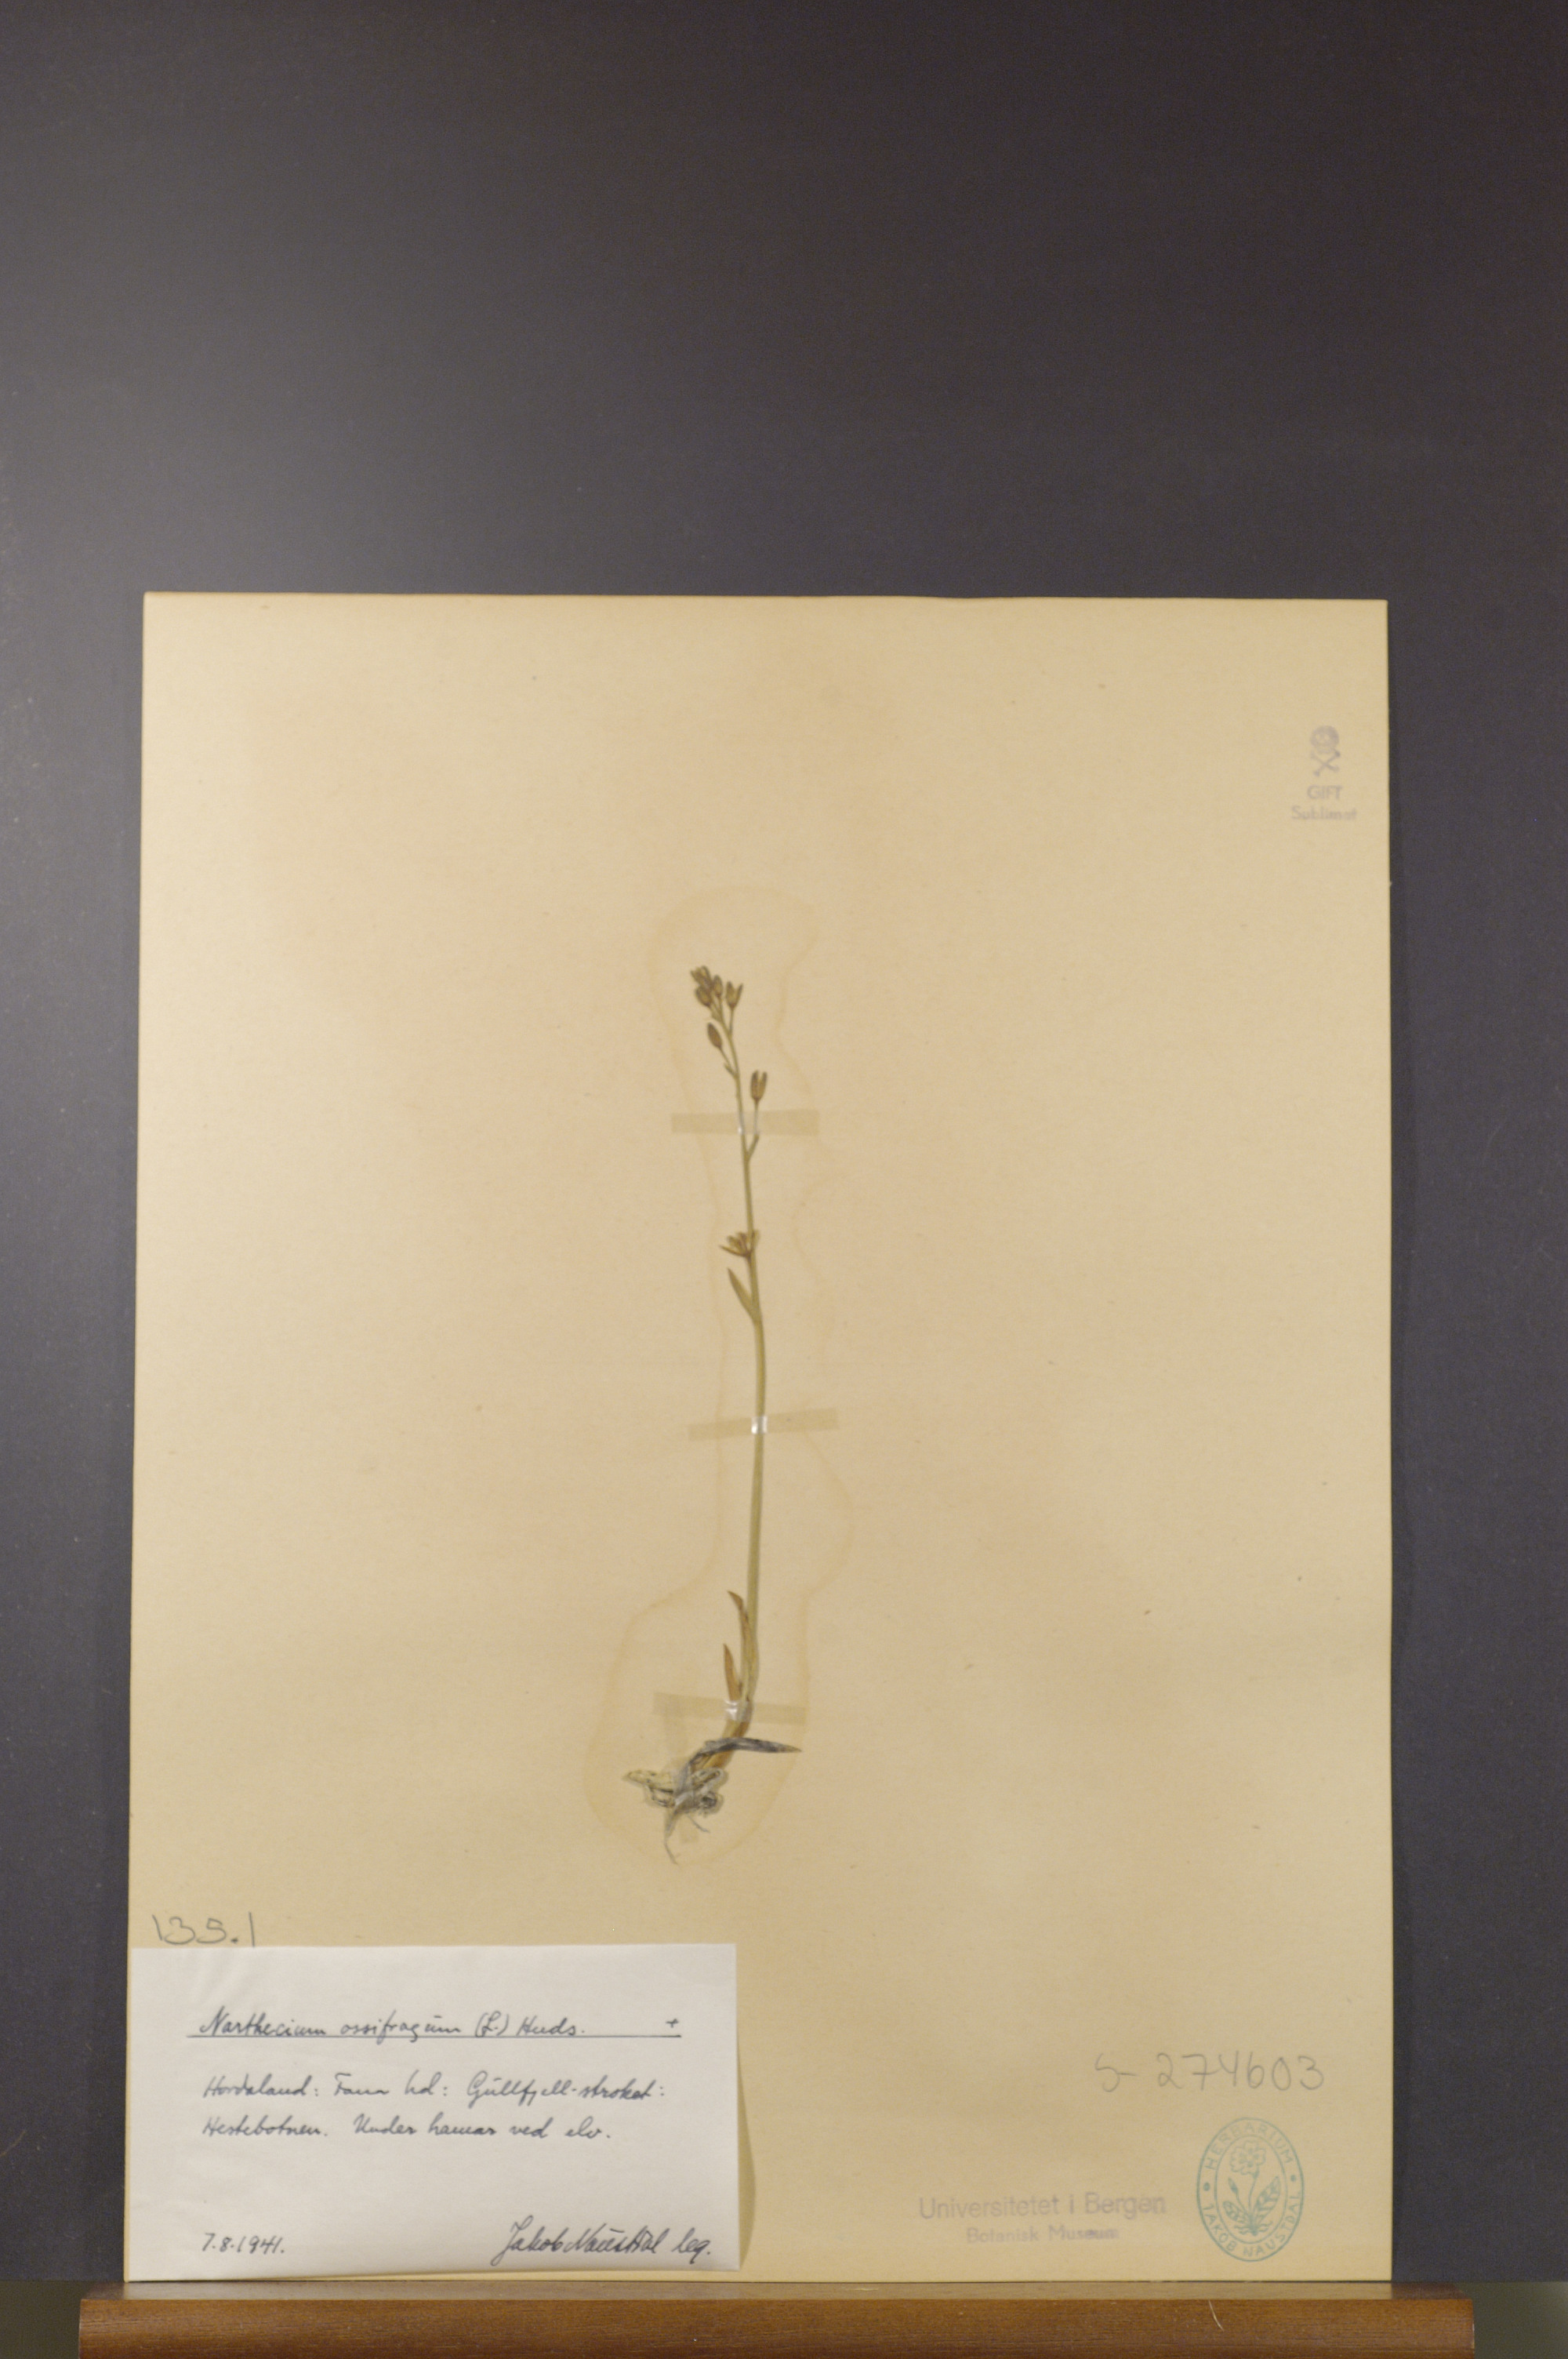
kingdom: Plantae
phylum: Tracheophyta
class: Liliopsida
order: Dioscoreales
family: Nartheciaceae
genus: Narthecium
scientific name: Narthecium ossifragum
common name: Bog asphodel
